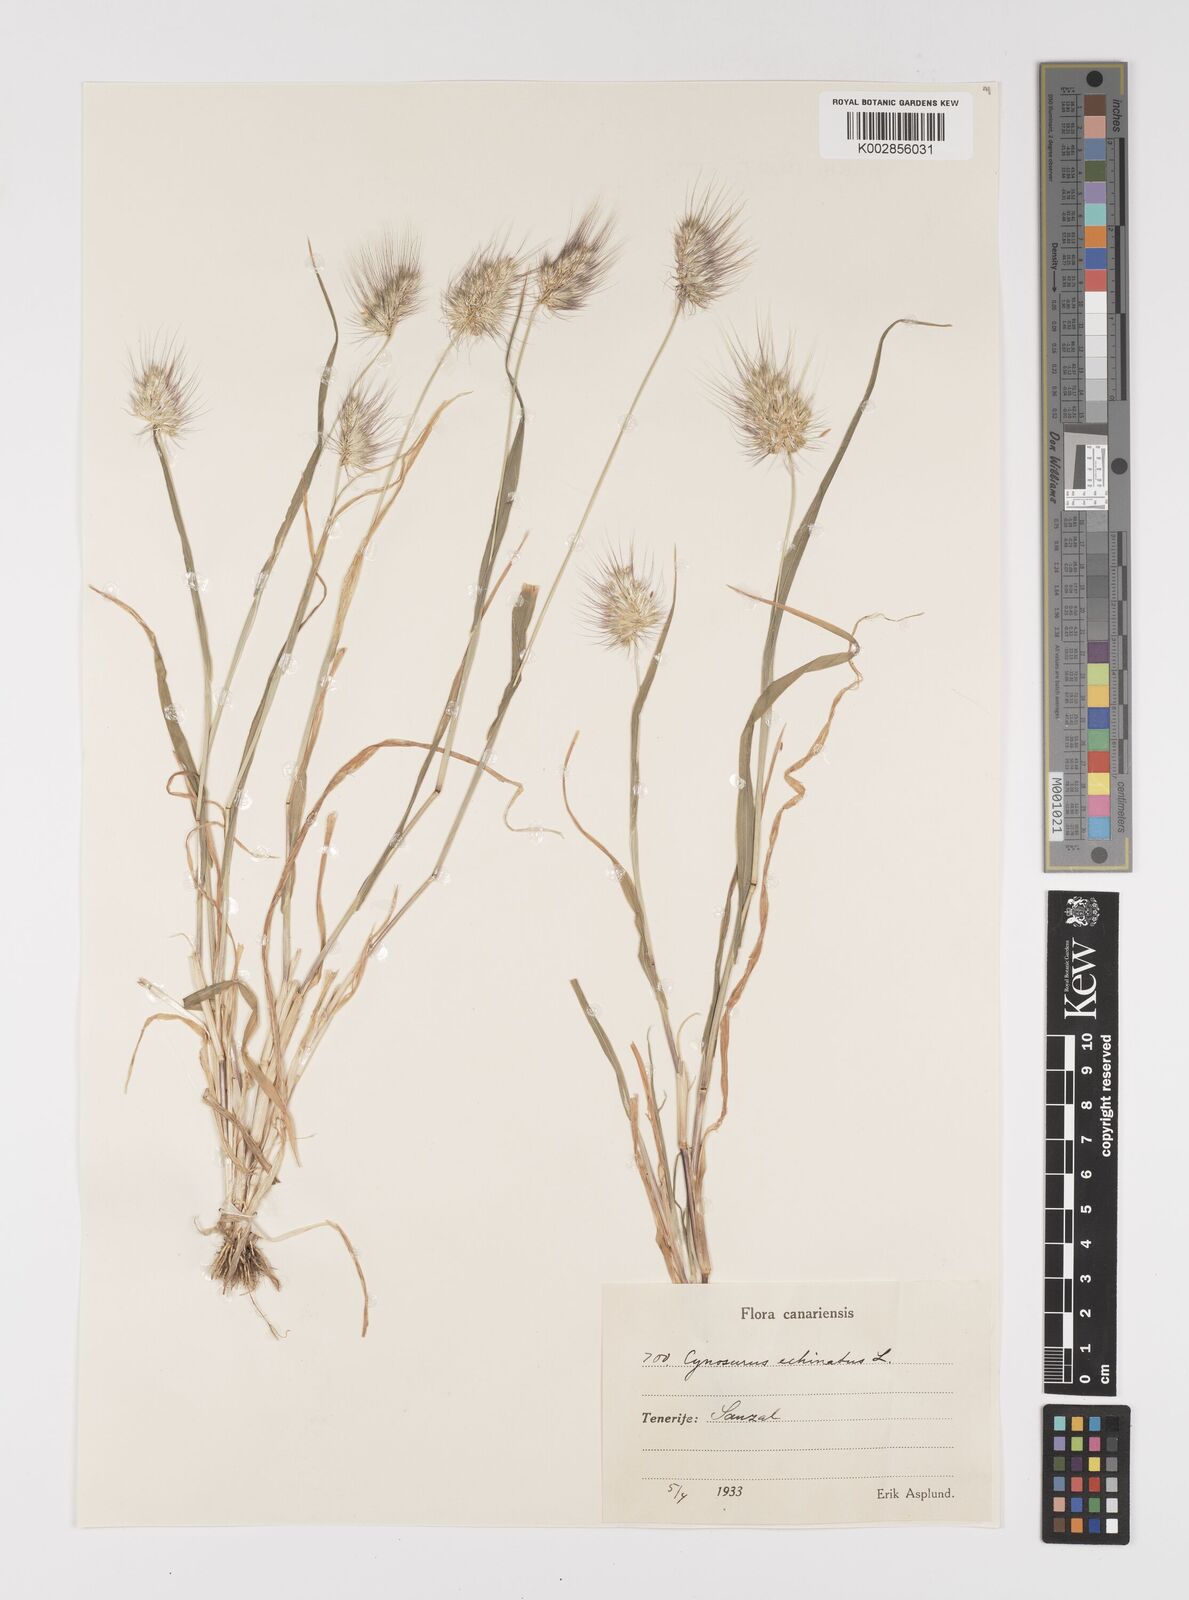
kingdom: Plantae
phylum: Tracheophyta
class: Liliopsida
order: Poales
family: Poaceae
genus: Cynosurus
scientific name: Cynosurus echinatus
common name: Rough dog's-tail
